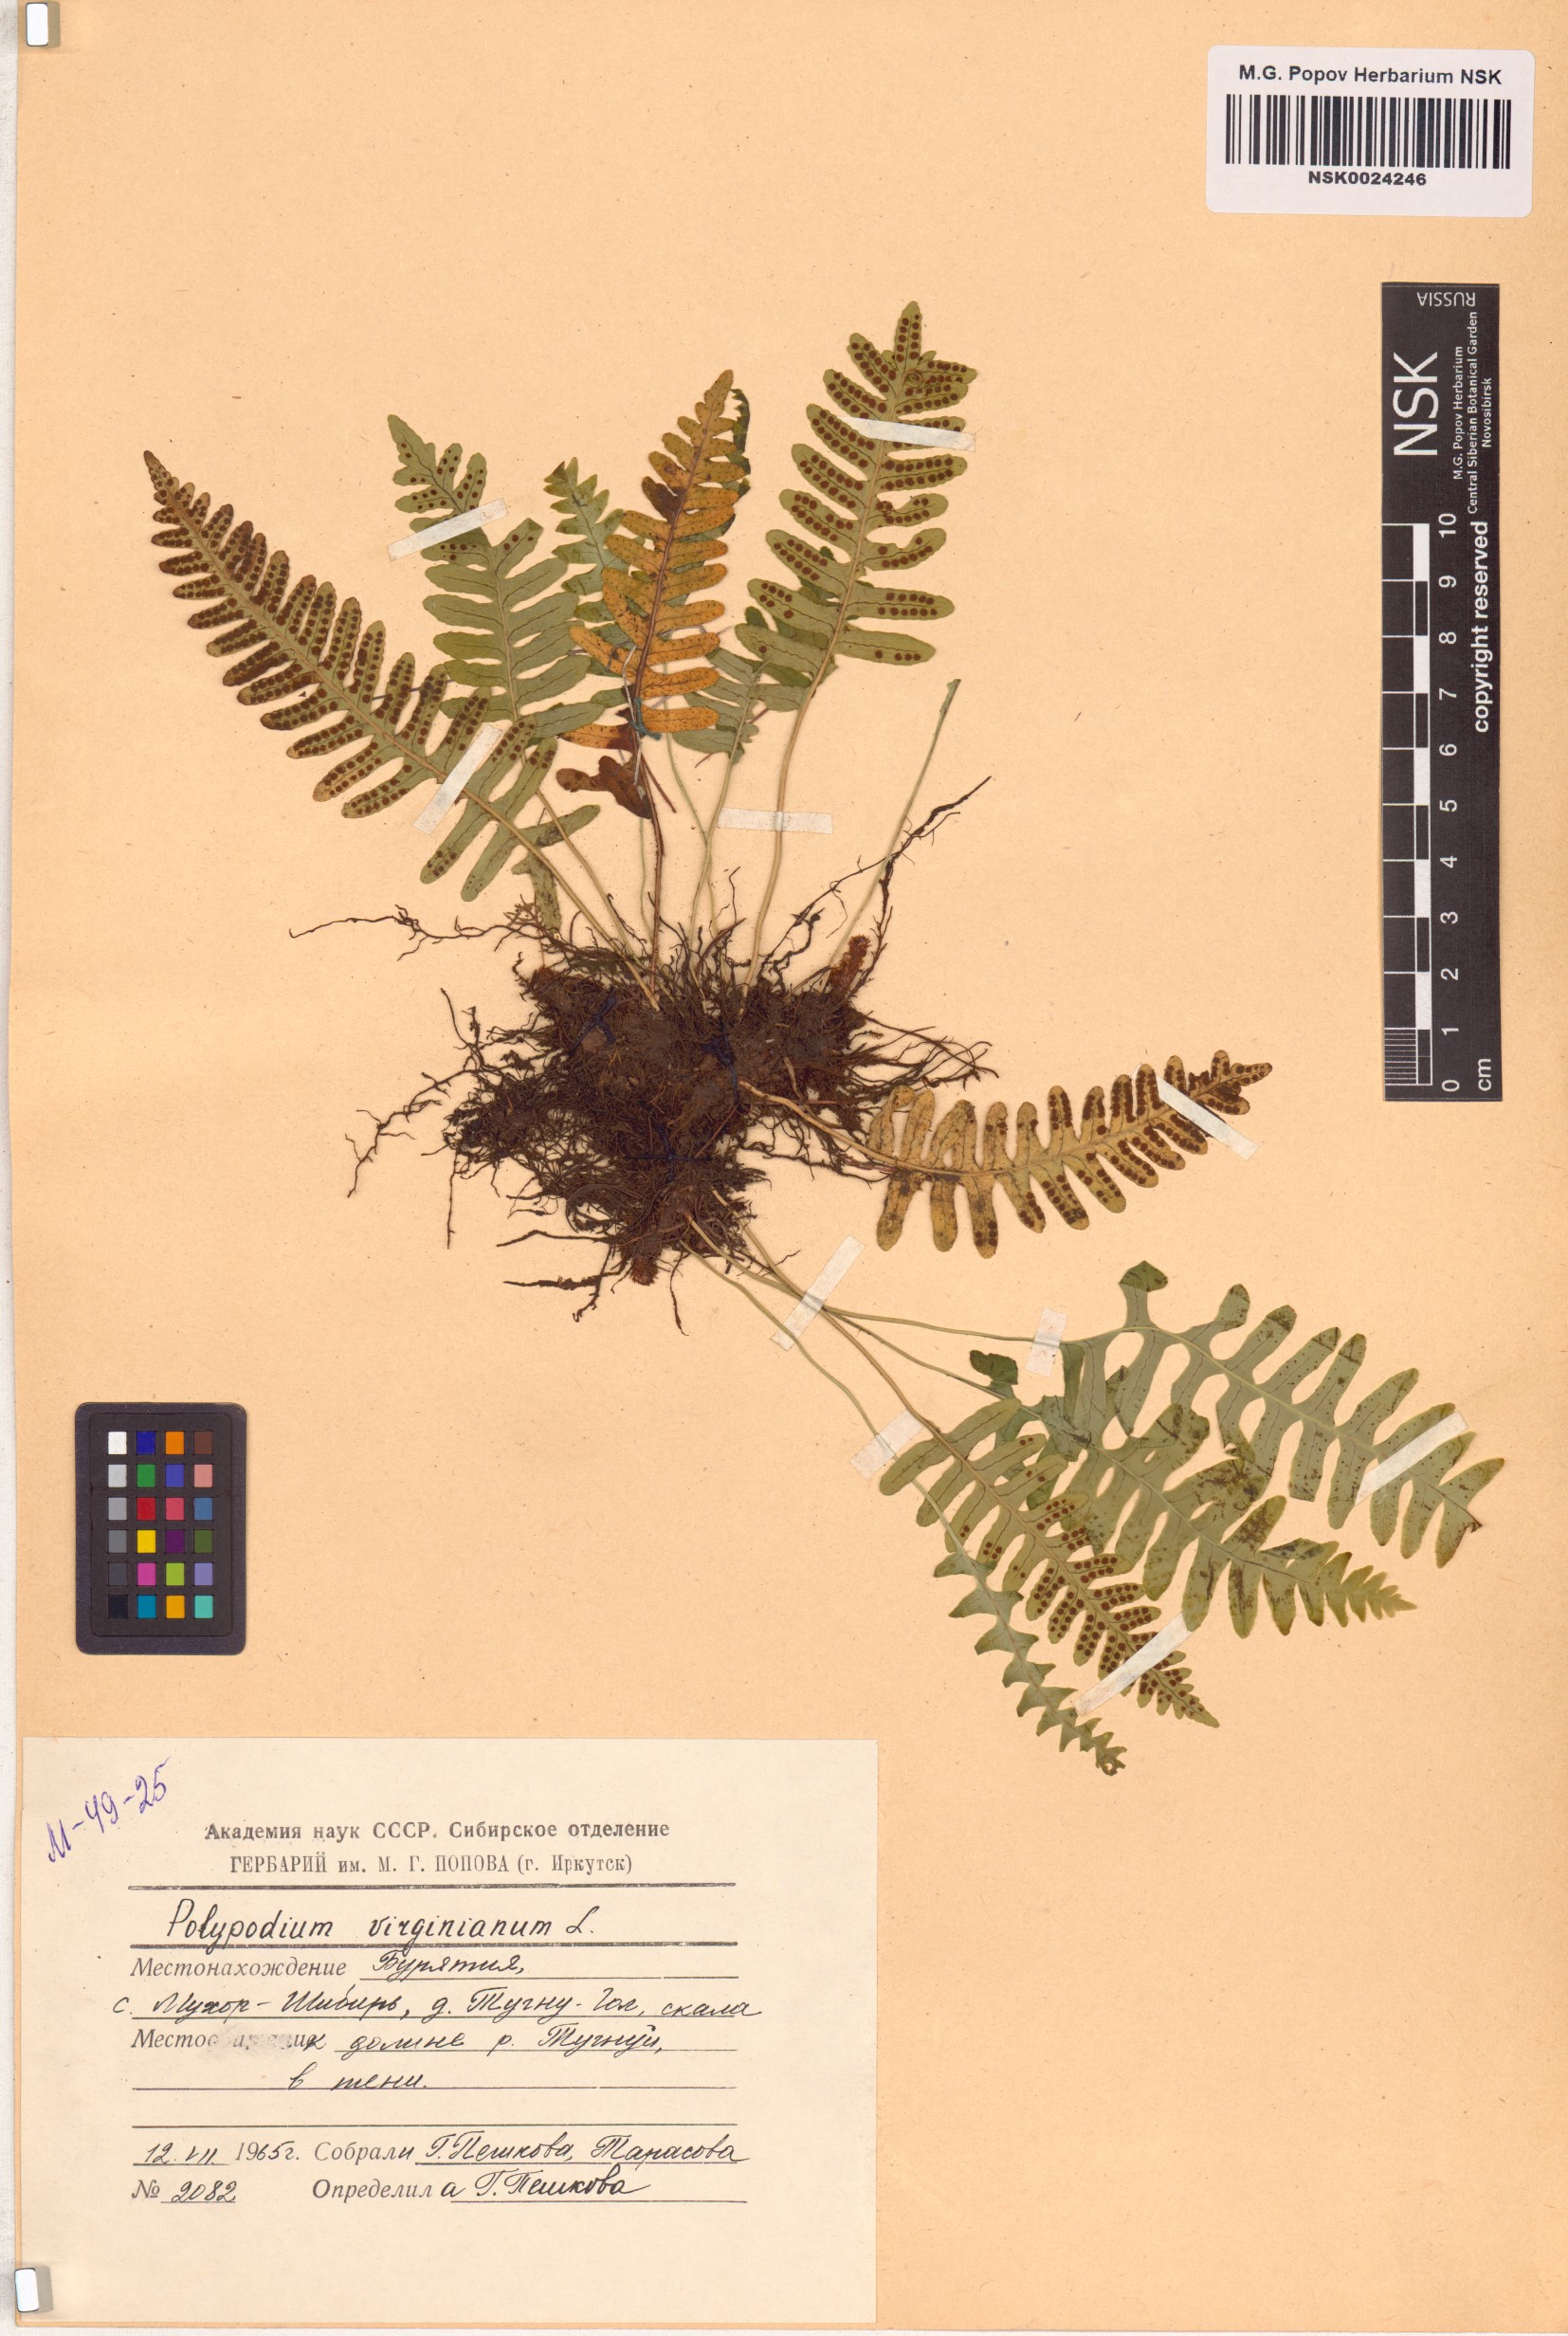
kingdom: Plantae
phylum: Tracheophyta
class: Polypodiopsida
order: Polypodiales
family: Polypodiaceae
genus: Polypodium
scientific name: Polypodium virginianum
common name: American wall fern
